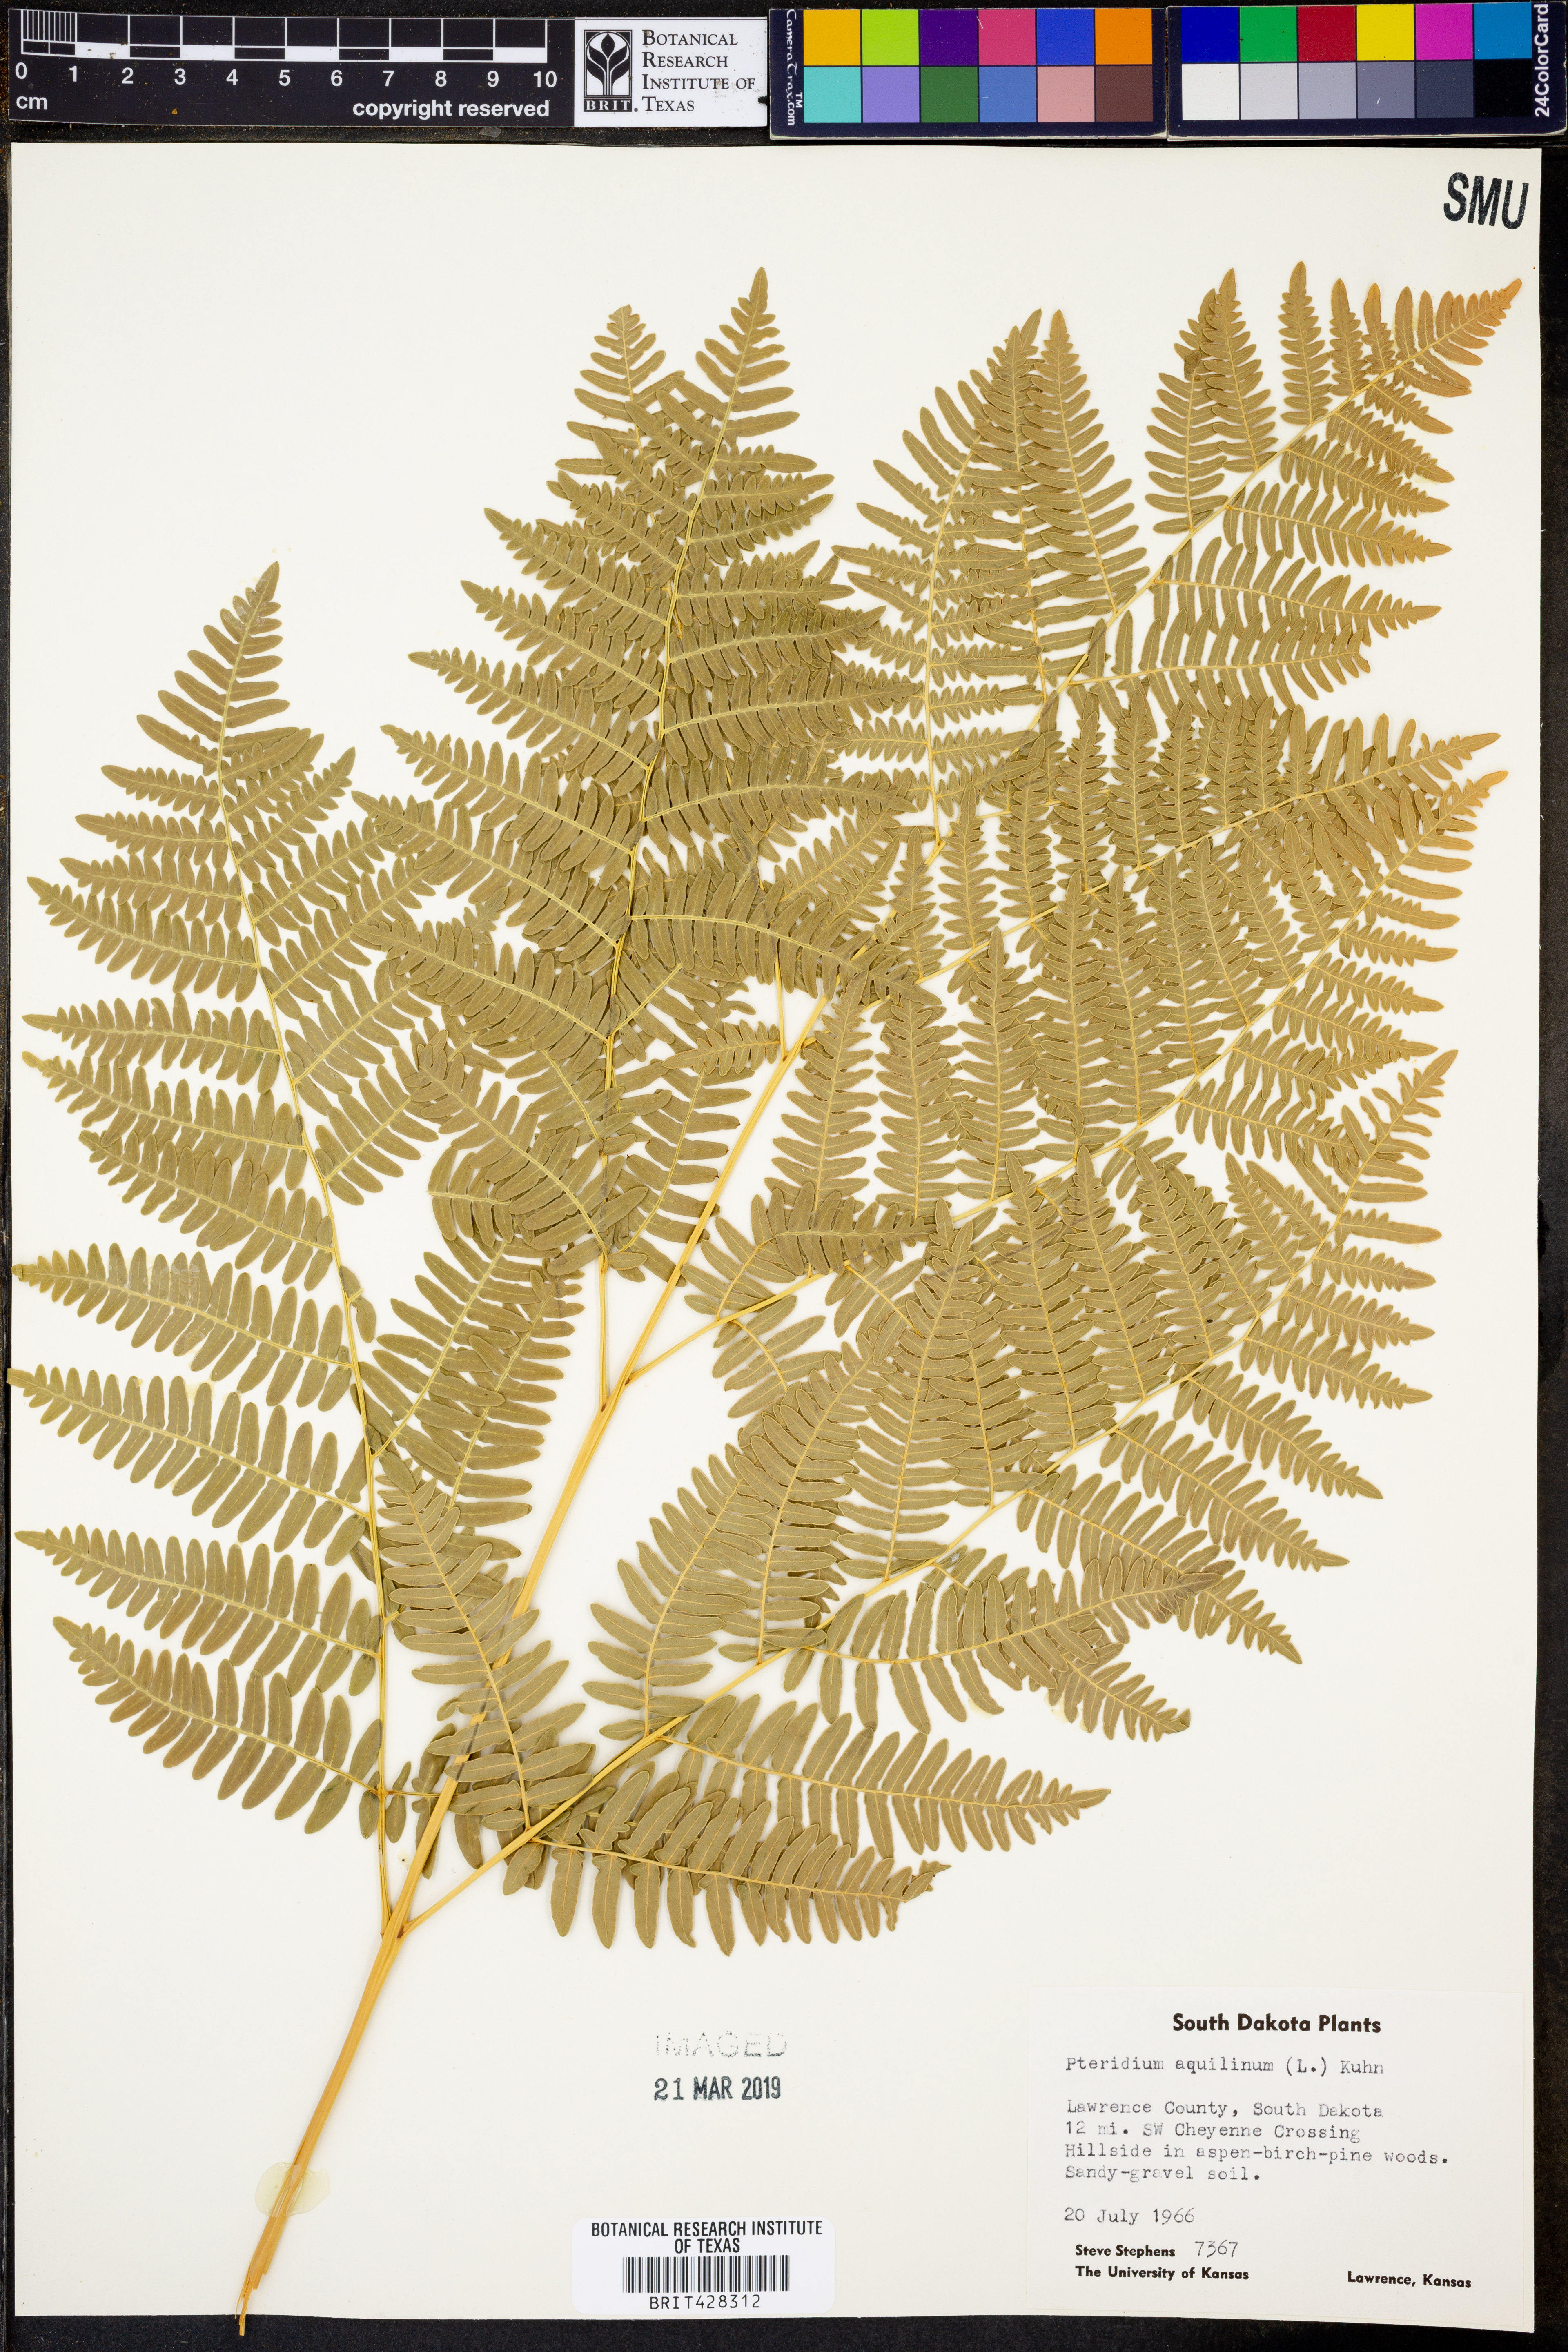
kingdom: Plantae
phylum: Tracheophyta
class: Polypodiopsida
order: Polypodiales
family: Dennstaedtiaceae
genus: Pteridium
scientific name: Pteridium aquilinum
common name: Bracken
